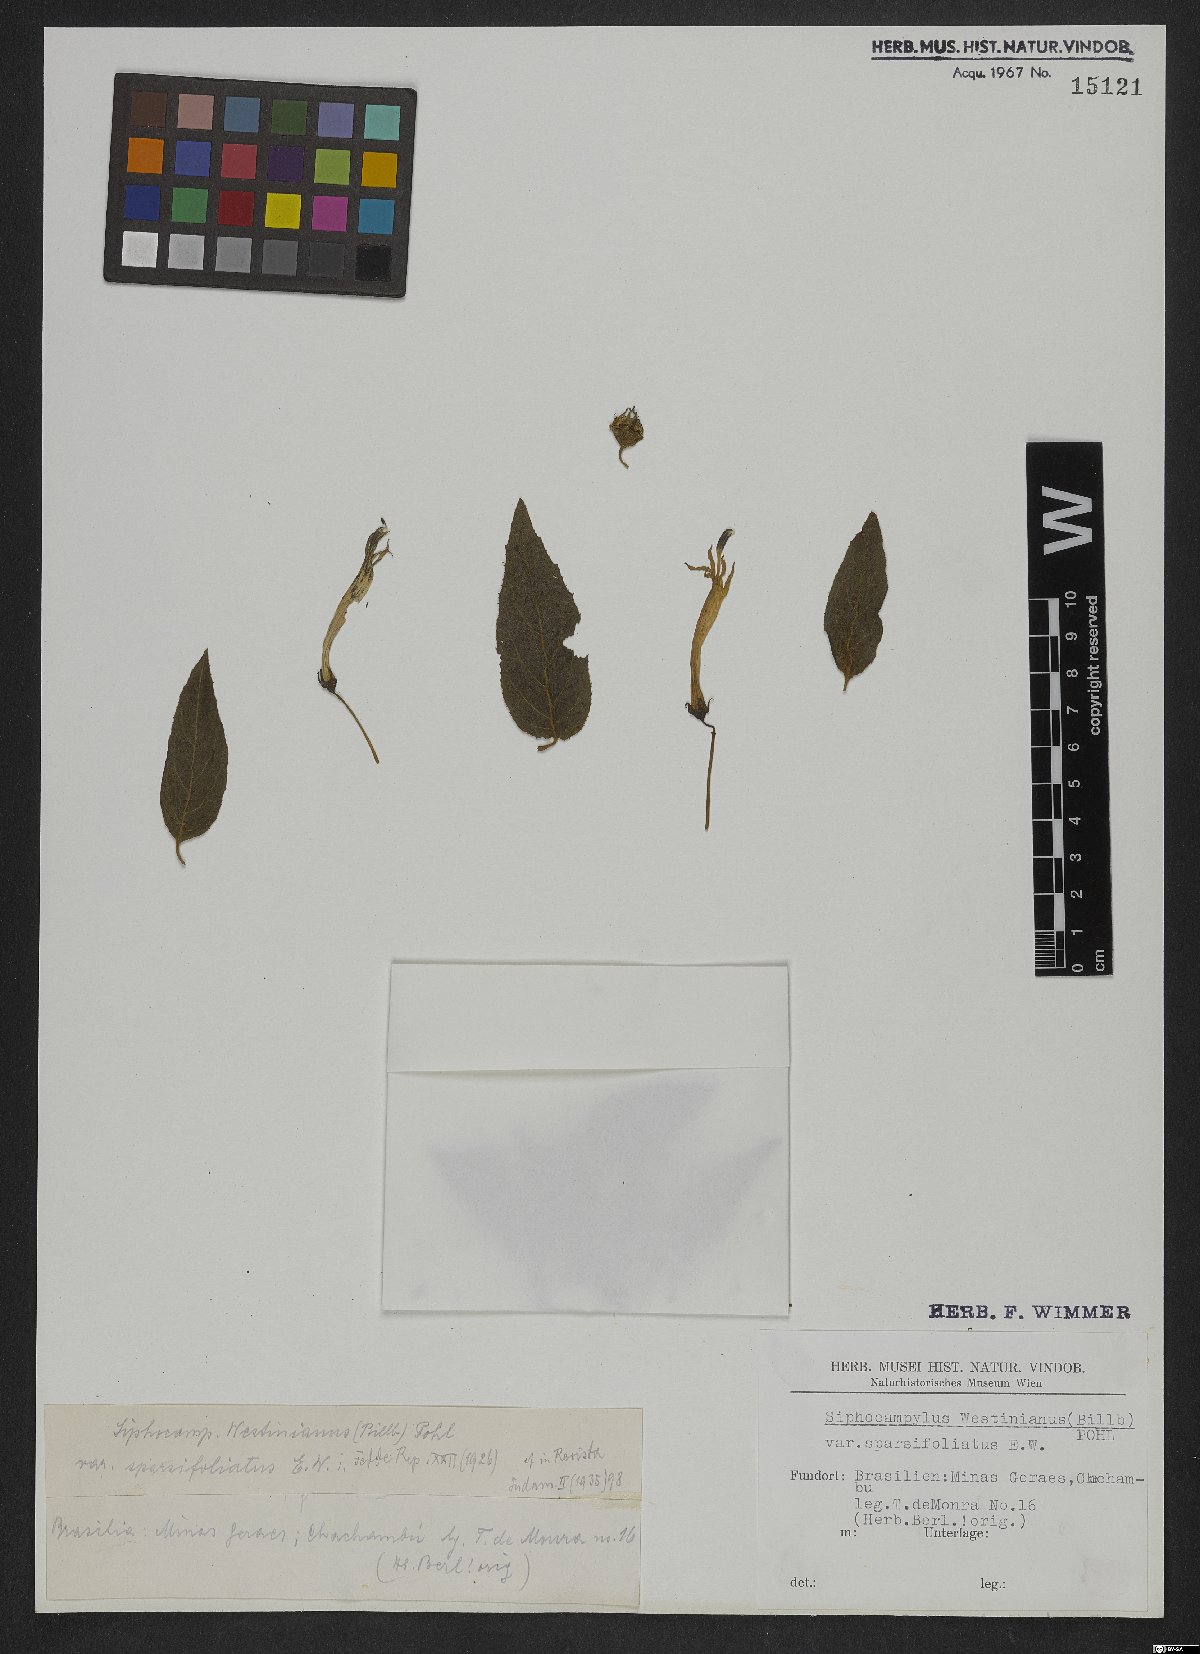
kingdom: Plantae
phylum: Tracheophyta
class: Magnoliopsida
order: Asterales
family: Campanulaceae
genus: Siphocampylus
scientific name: Siphocampylus westinianus
